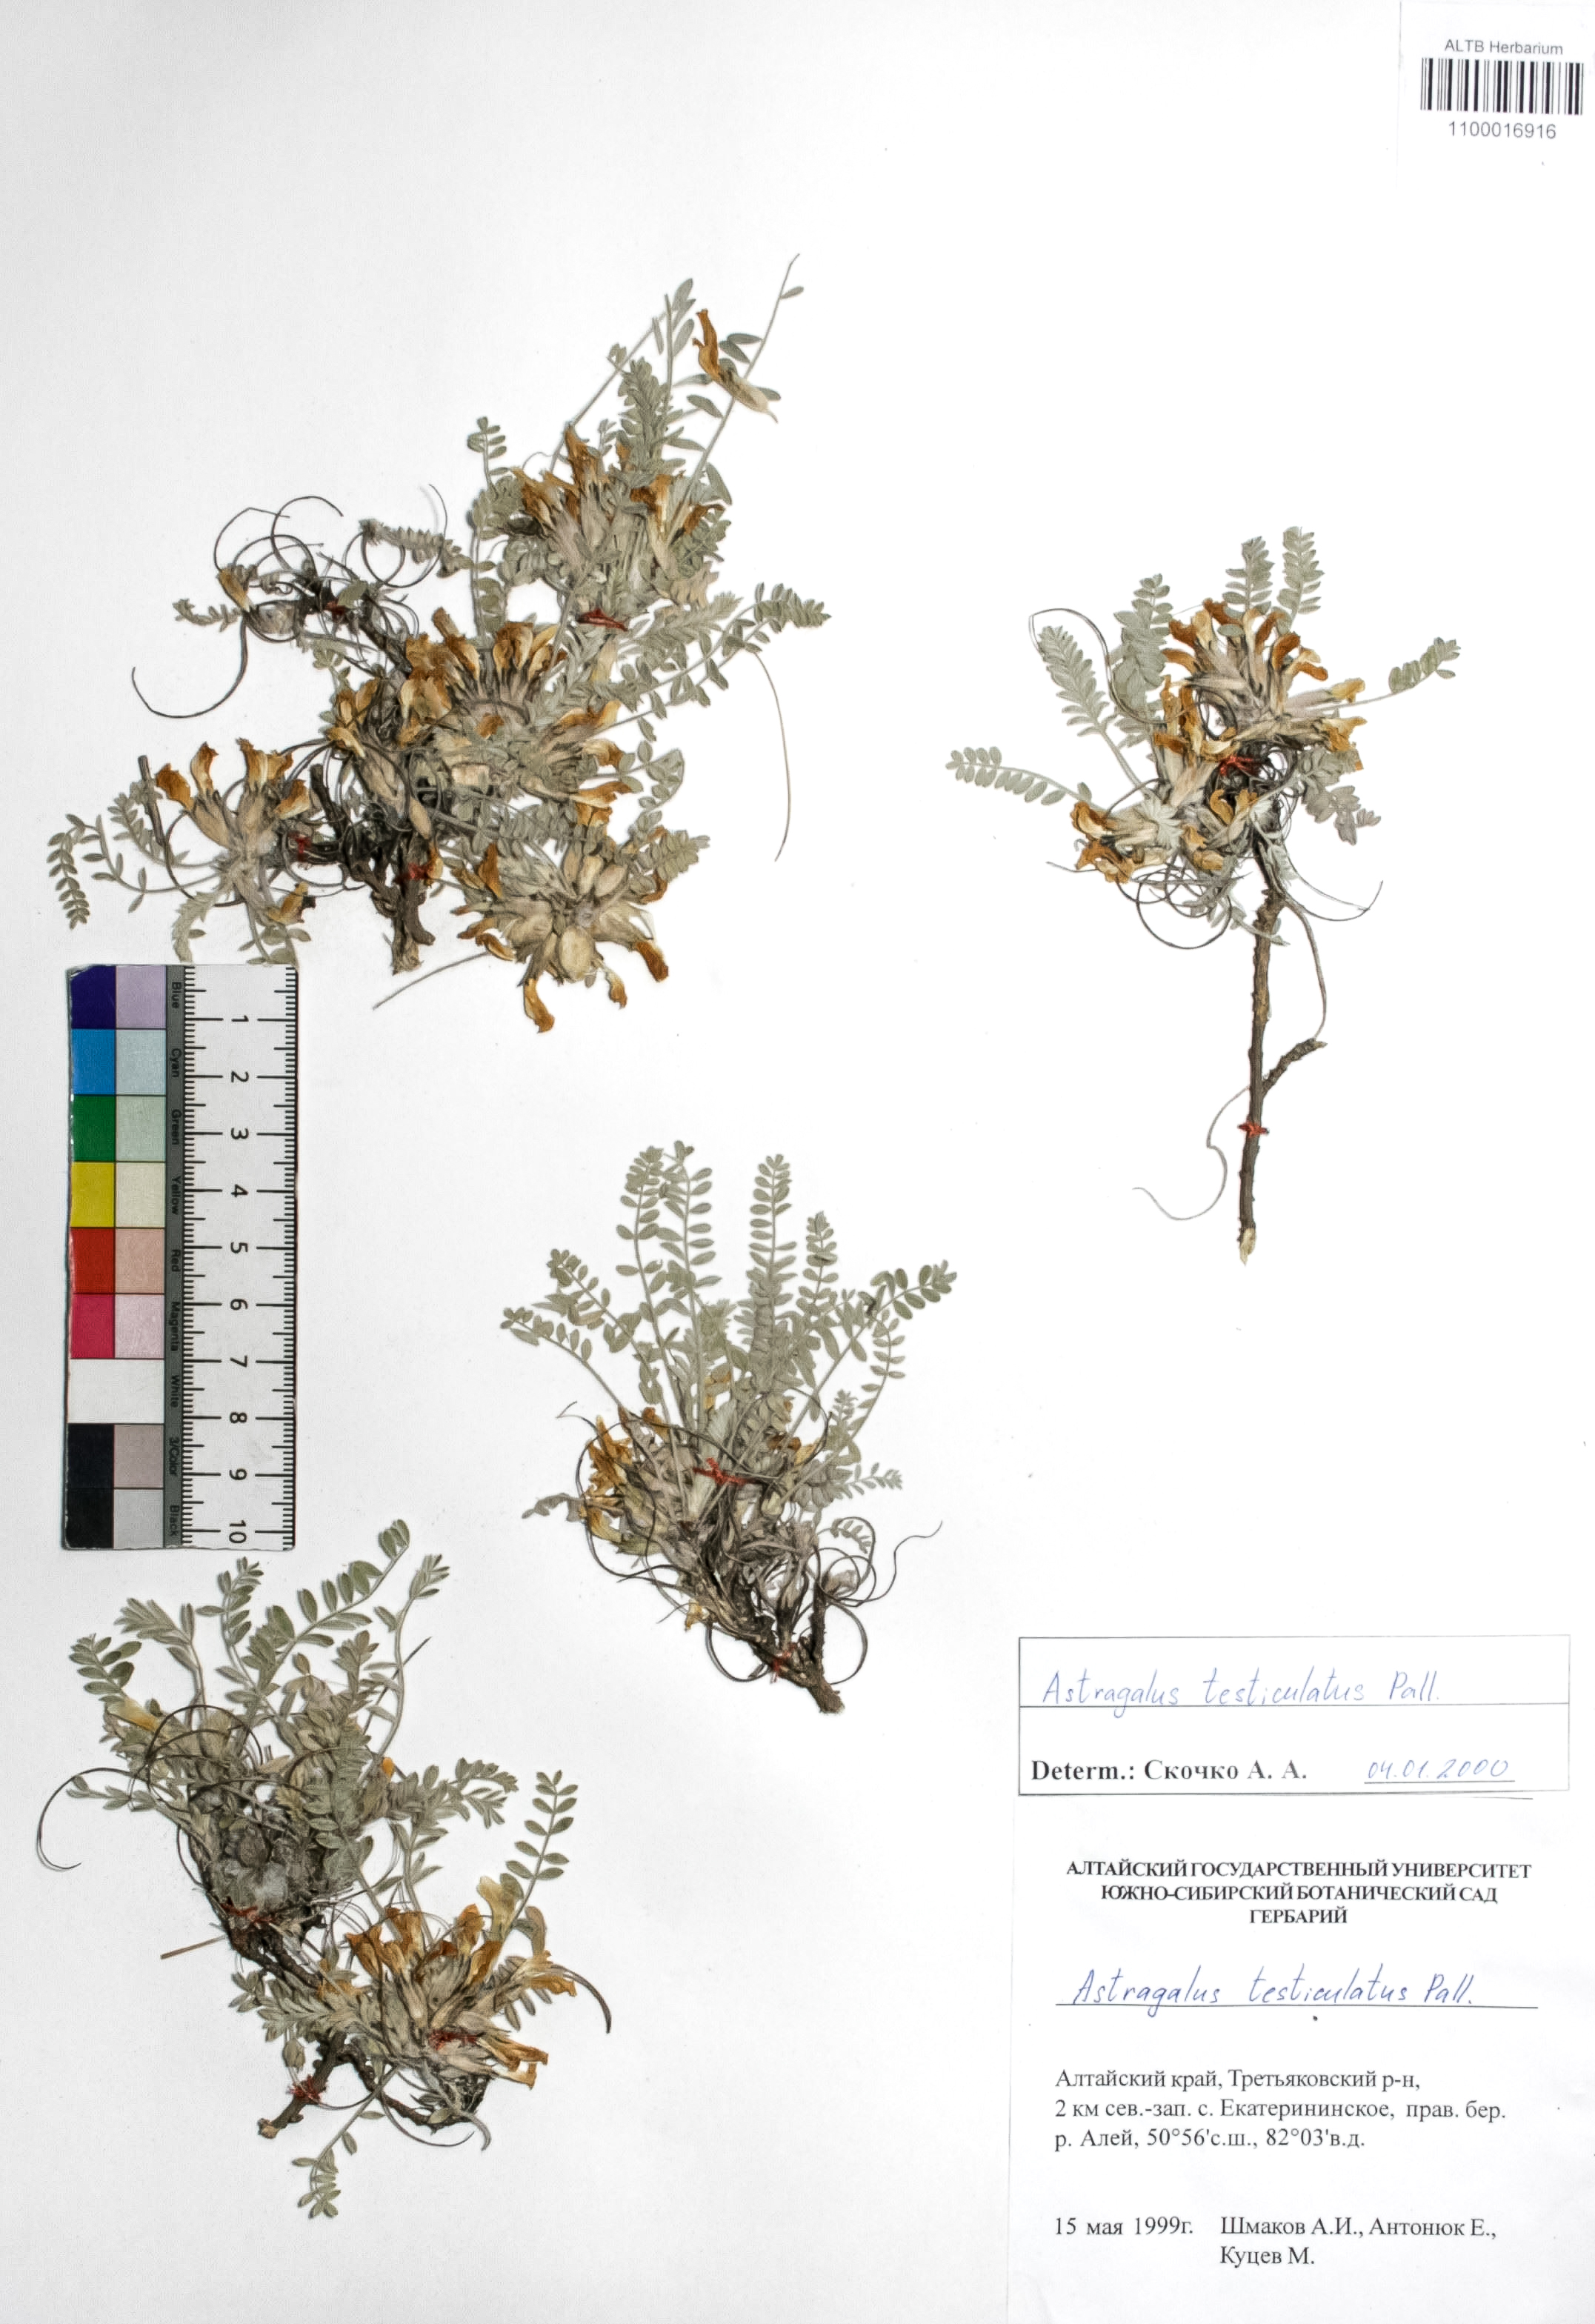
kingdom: Plantae
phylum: Tracheophyta
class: Magnoliopsida
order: Fabales
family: Fabaceae
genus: Astragalus
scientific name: Astragalus testiculatus
